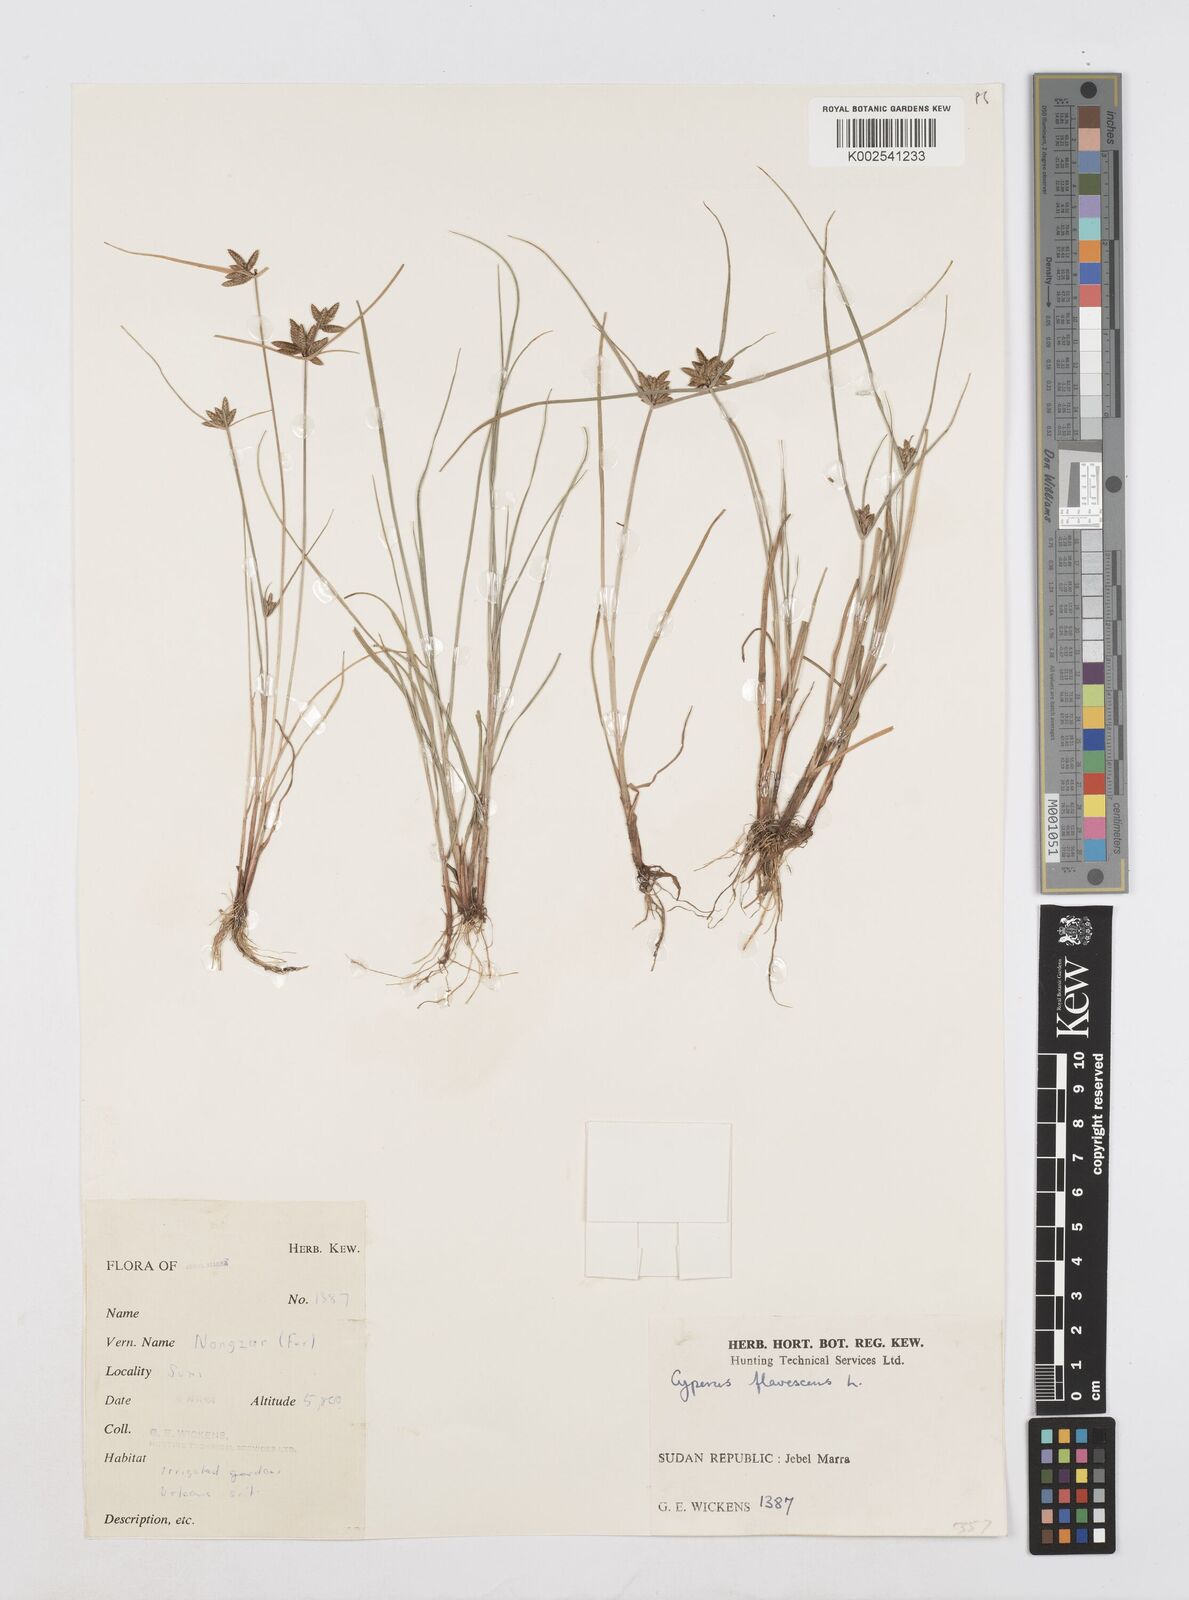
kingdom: Plantae
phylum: Tracheophyta
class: Liliopsida
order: Poales
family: Cyperaceae
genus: Cyperus
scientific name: Cyperus flavescens
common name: Yellow galingale
